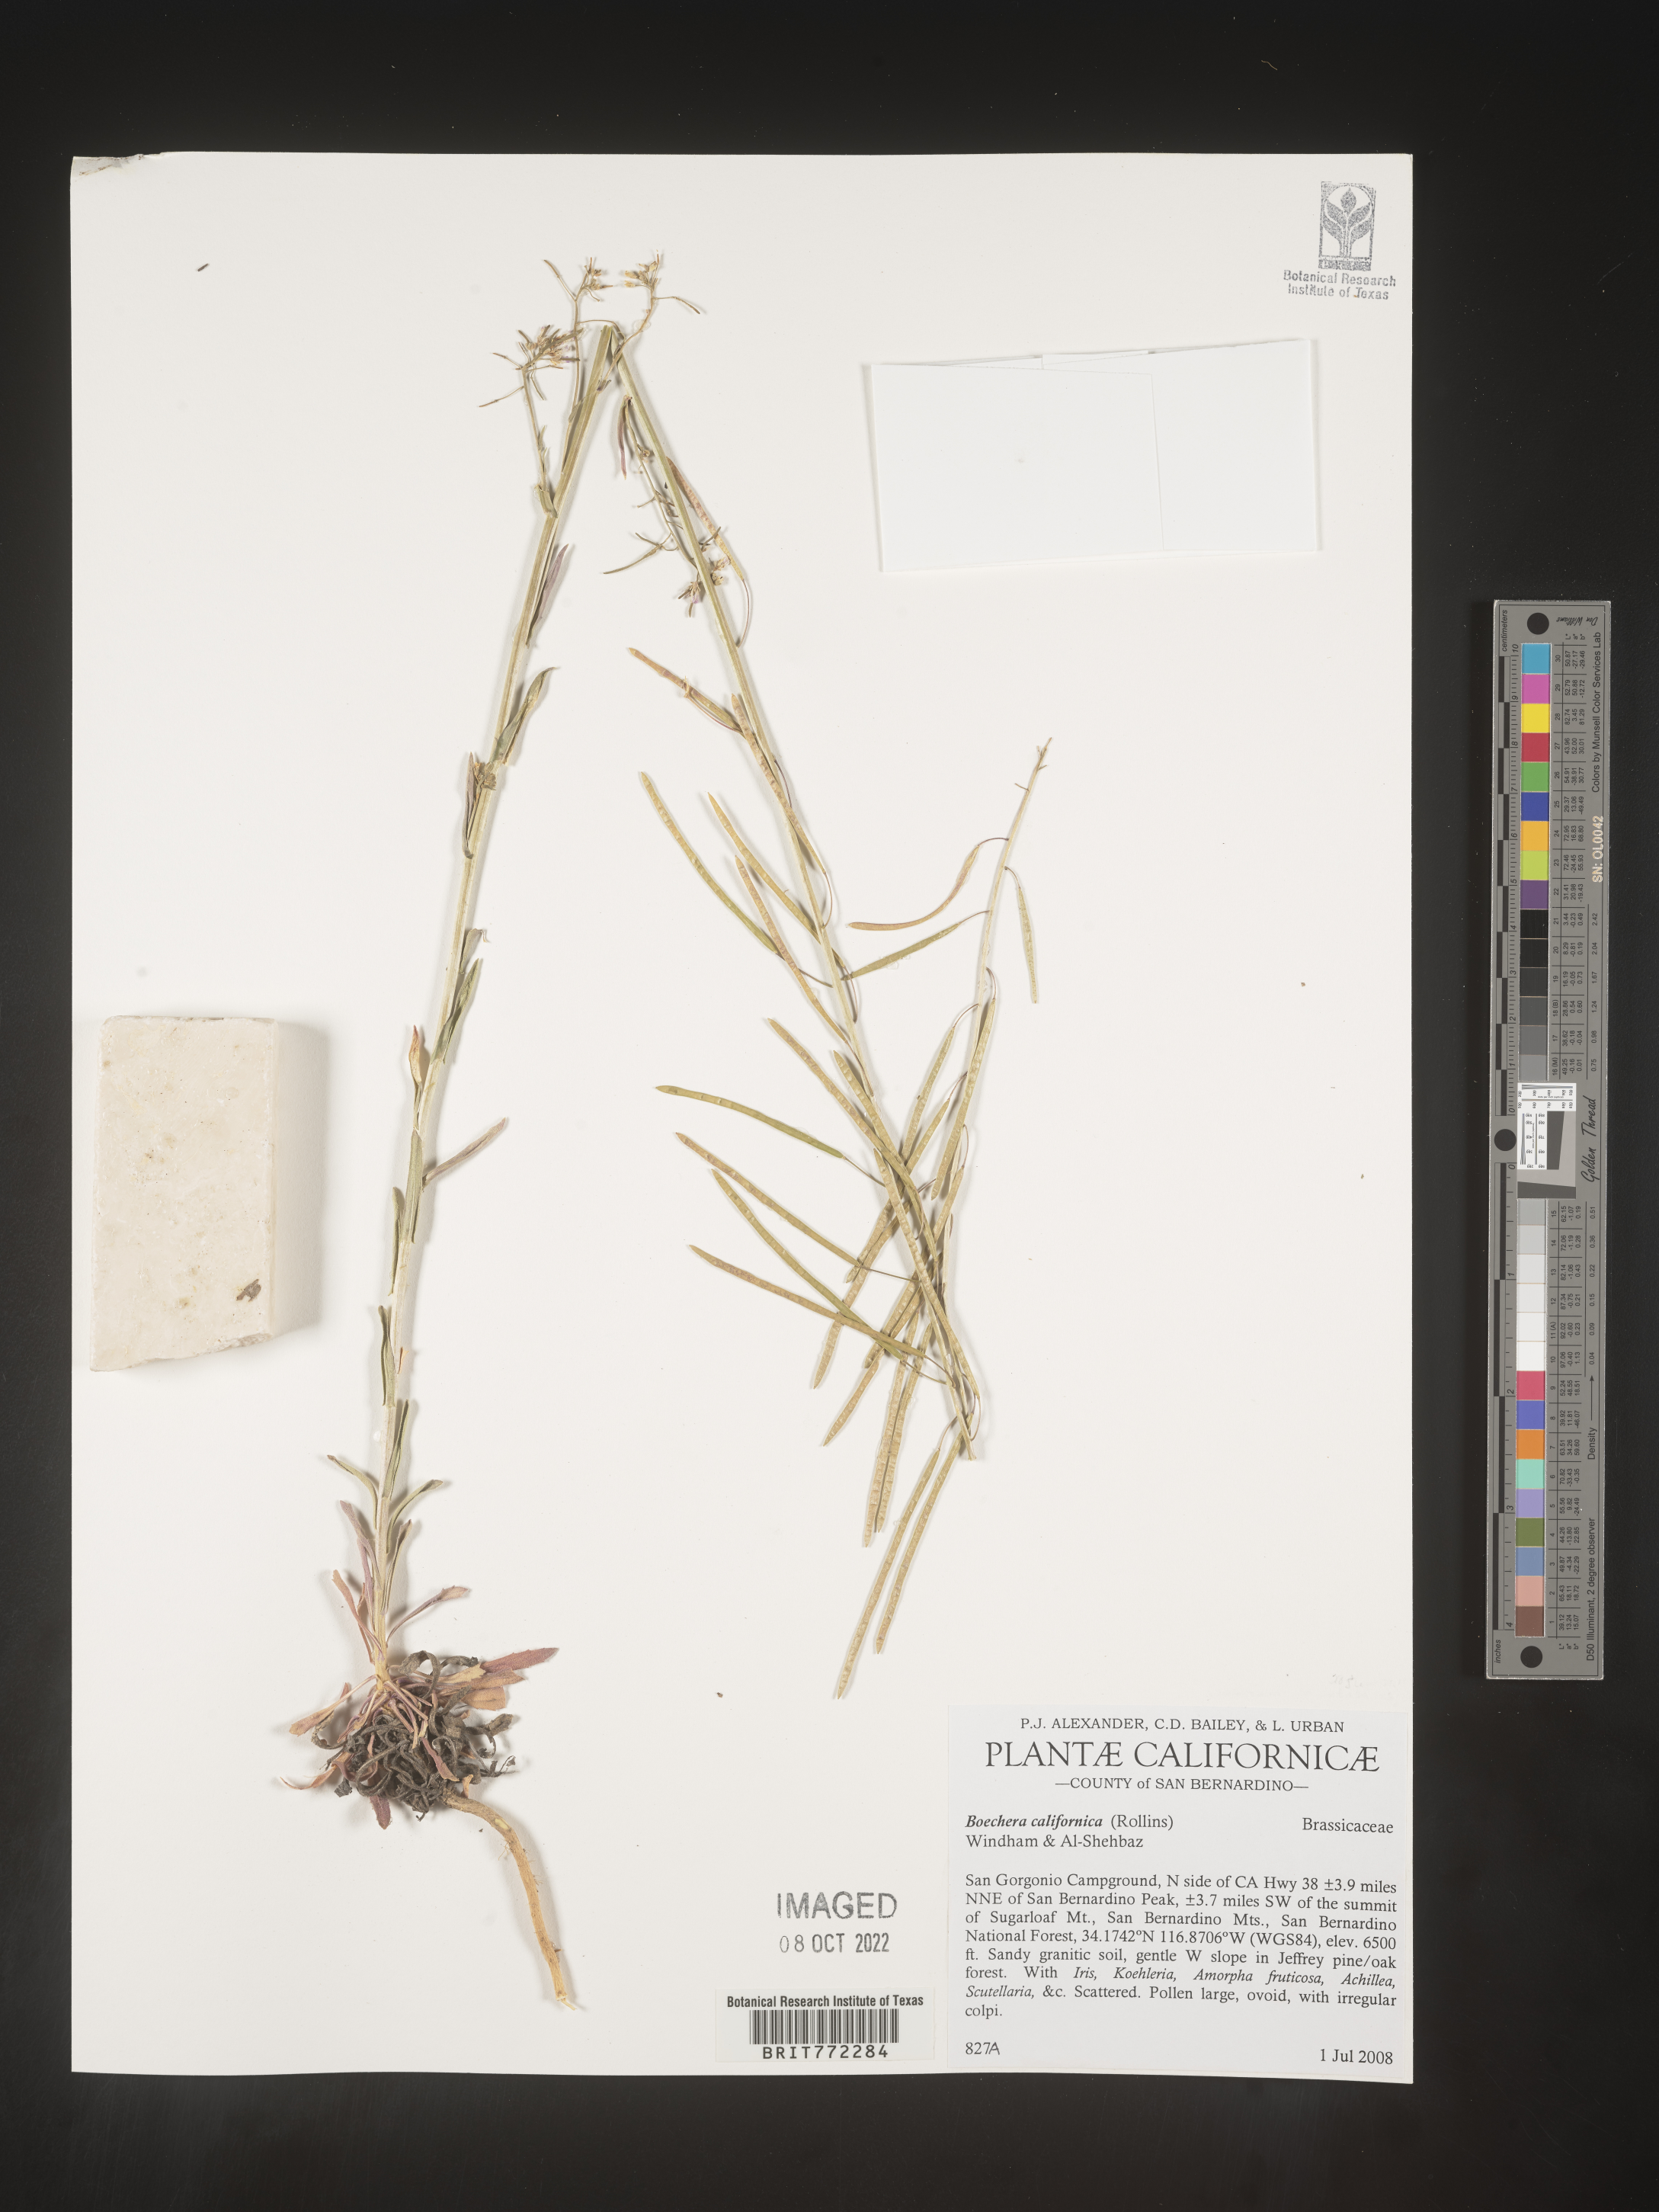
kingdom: Plantae
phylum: Tracheophyta
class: Magnoliopsida
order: Brassicales
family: Brassicaceae
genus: Boechera
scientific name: Boechera
